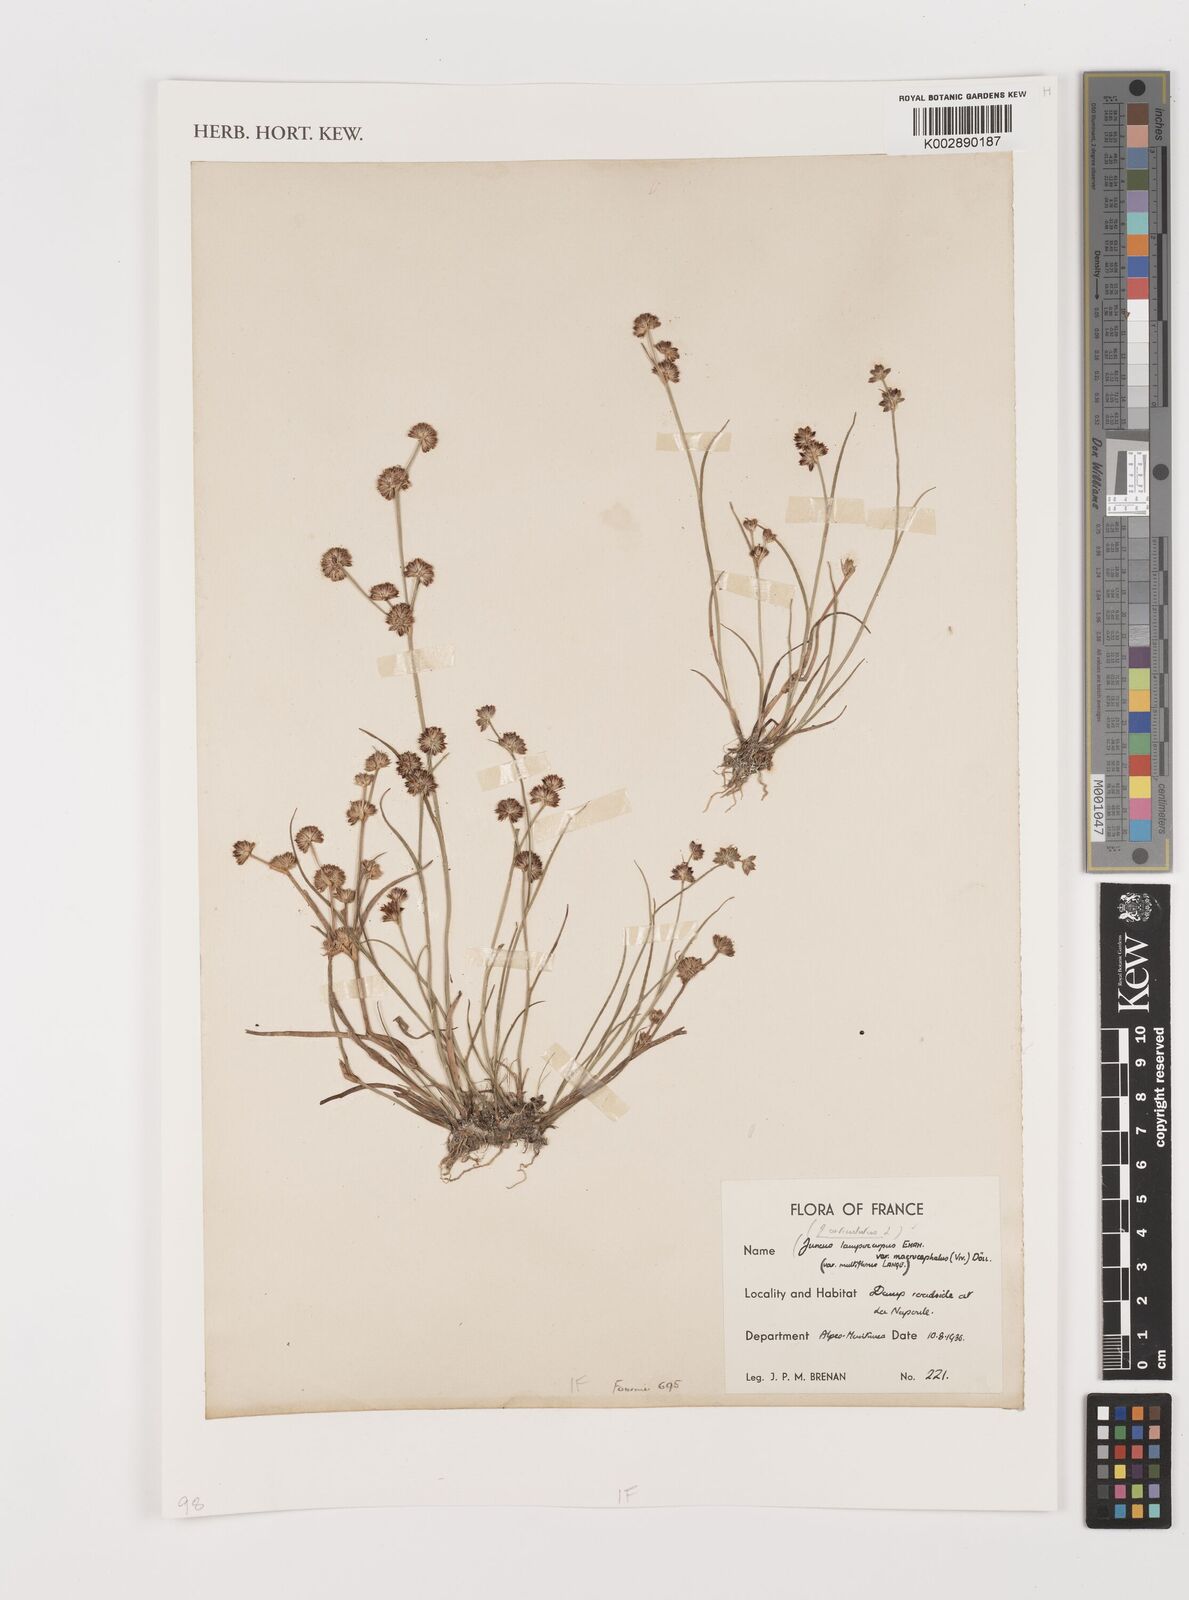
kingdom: Plantae
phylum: Tracheophyta
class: Liliopsida
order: Poales
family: Juncaceae
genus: Juncus
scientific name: Juncus articulatus
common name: Jointed rush
